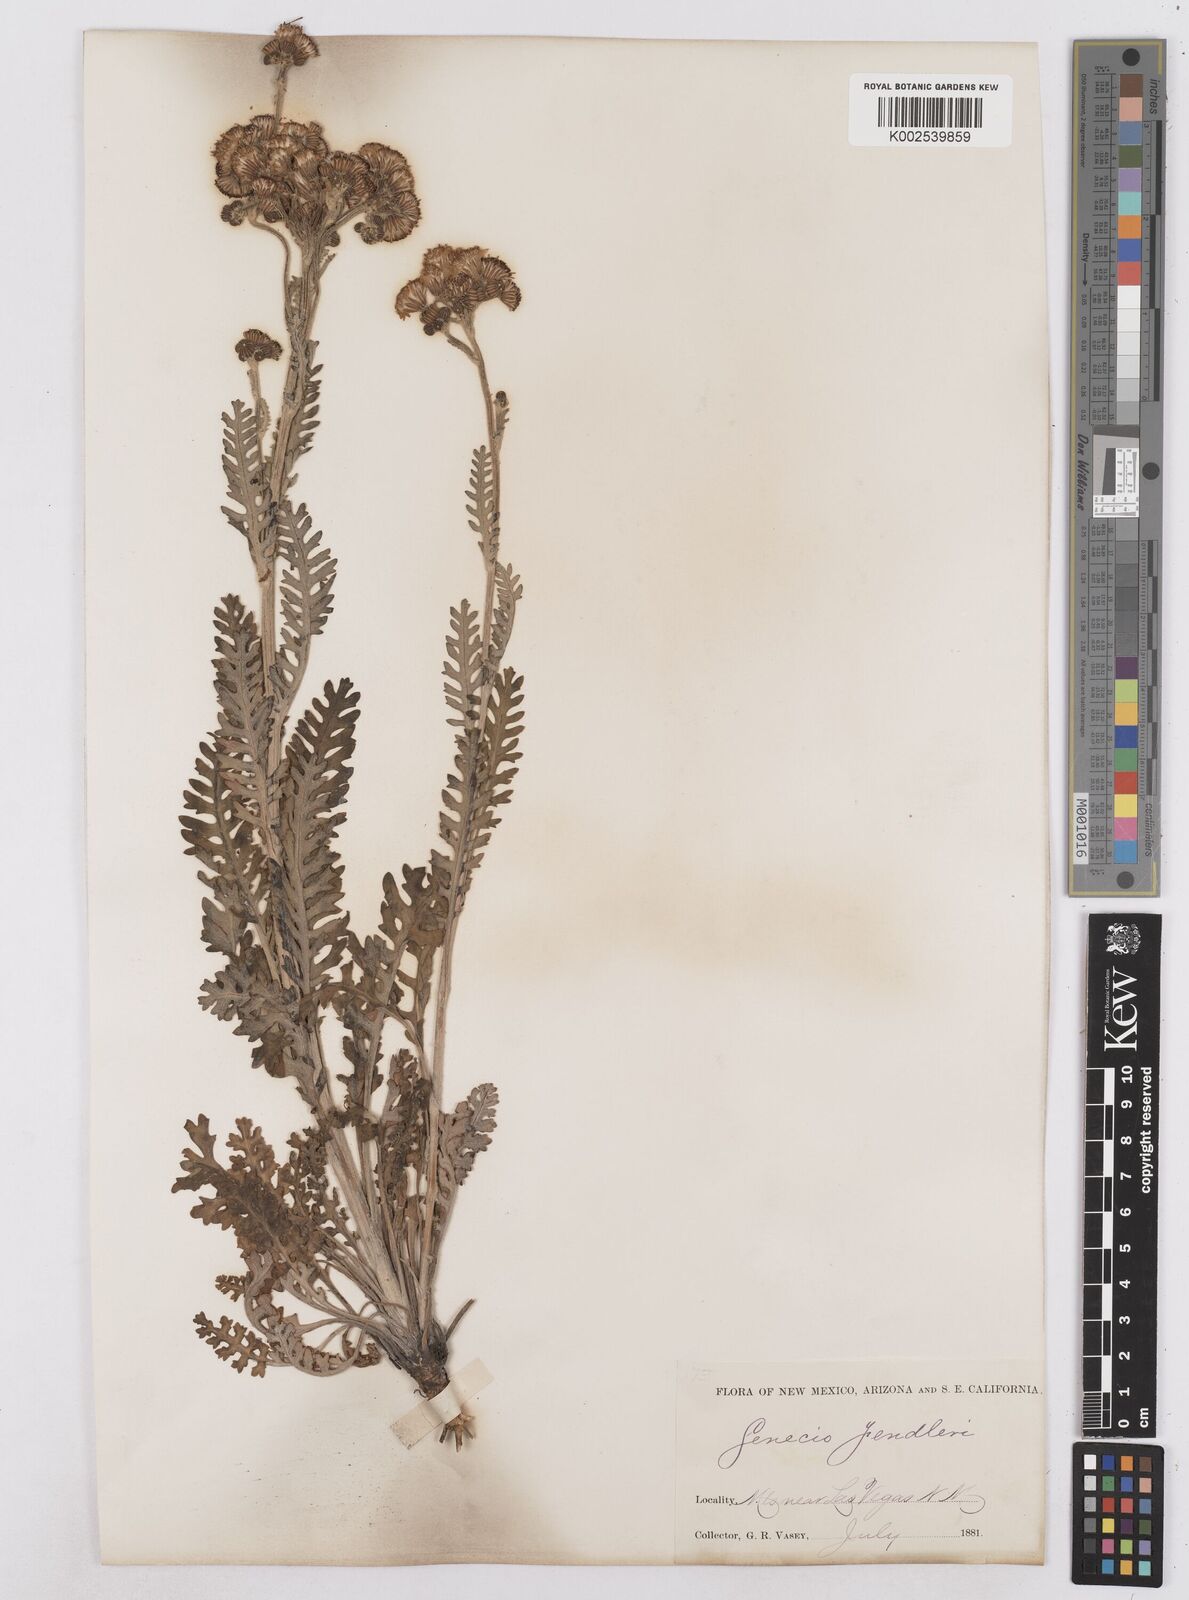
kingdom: Plantae
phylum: Tracheophyta
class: Magnoliopsida
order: Asterales
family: Asteraceae
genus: Packera
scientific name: Packera fendleri
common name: Notch-leaf butterweed
